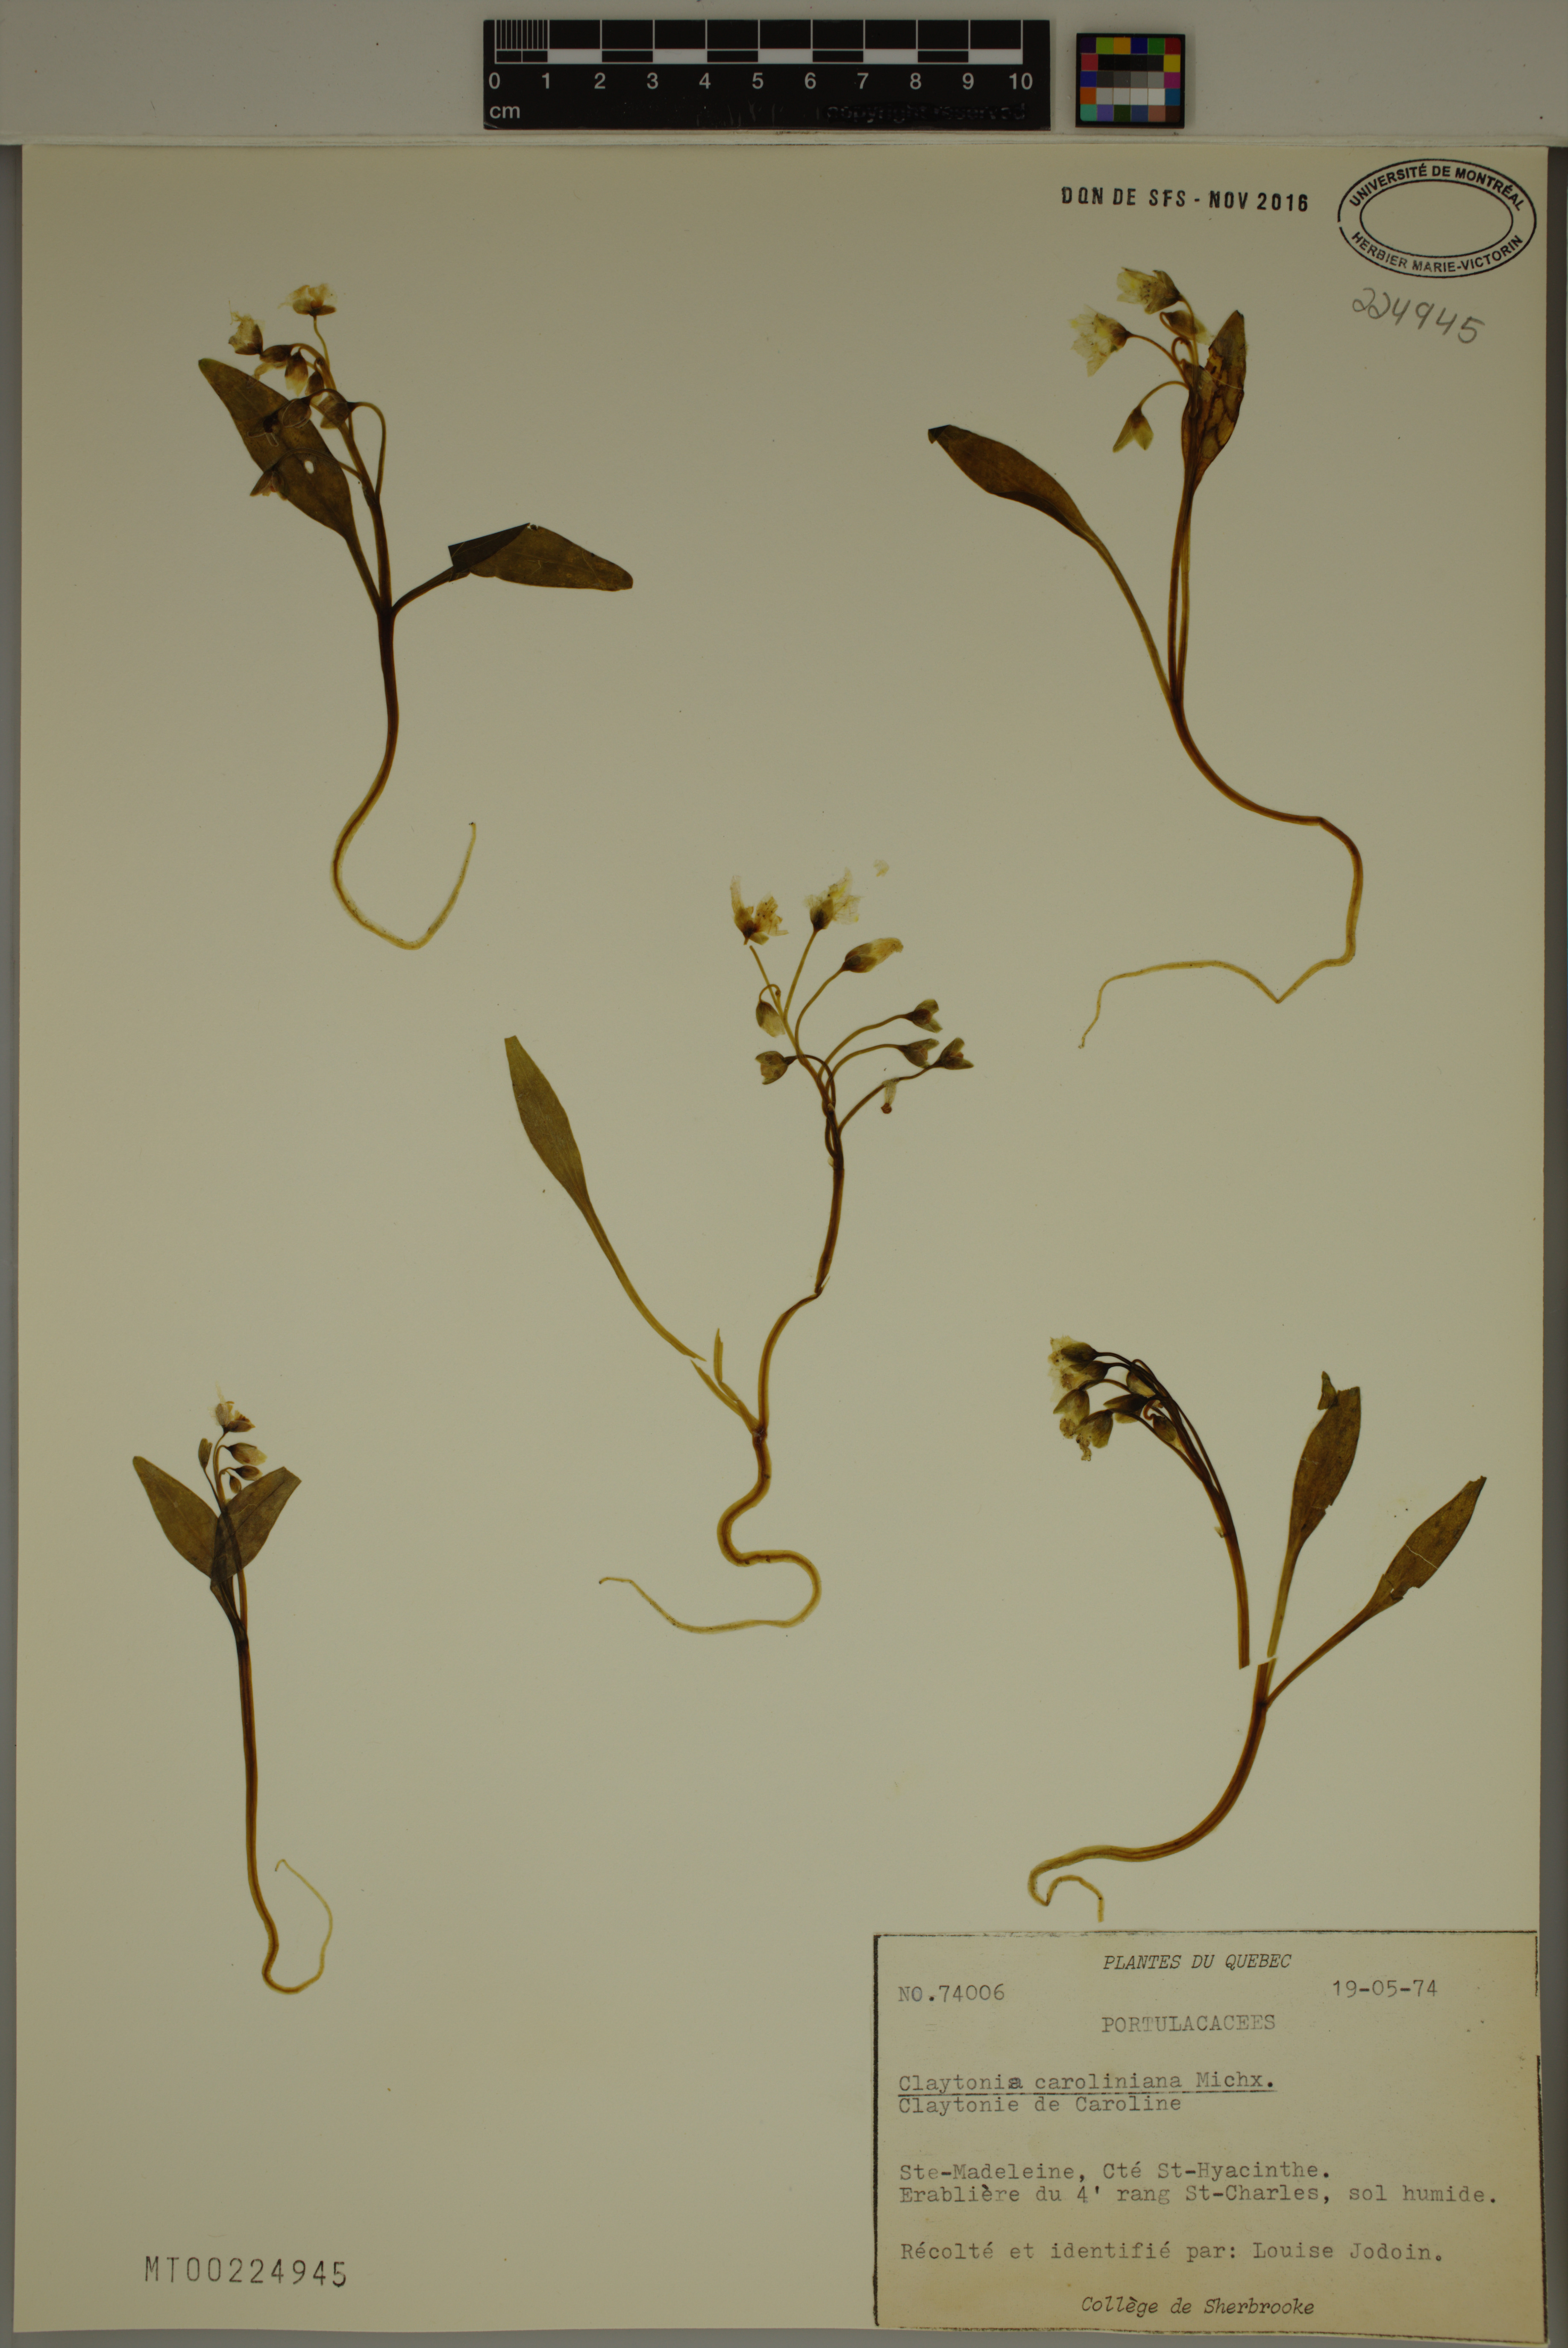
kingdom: Plantae
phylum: Tracheophyta
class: Magnoliopsida
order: Caryophyllales
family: Montiaceae
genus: Claytonia
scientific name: Claytonia caroliniana
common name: Carolina spring beauty
